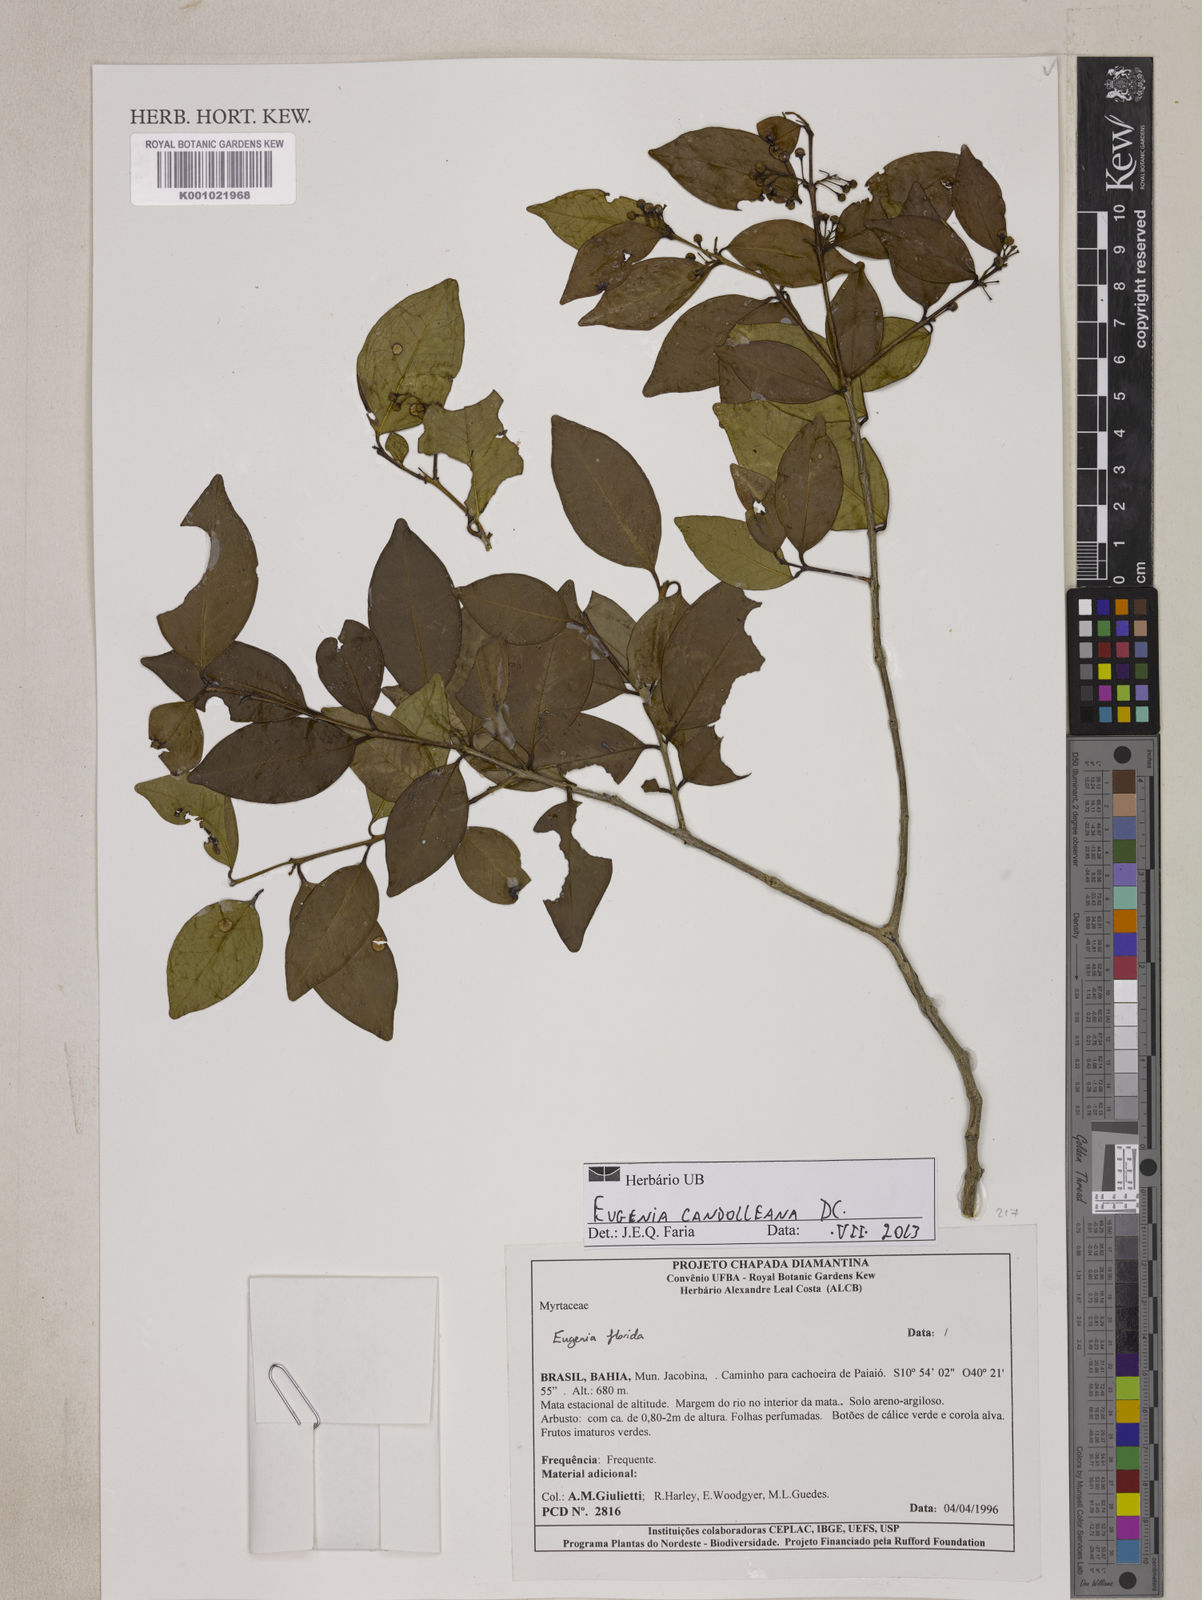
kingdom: Plantae
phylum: Tracheophyta
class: Magnoliopsida
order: Myrtales
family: Myrtaceae
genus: Eugenia
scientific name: Eugenia candolleana
